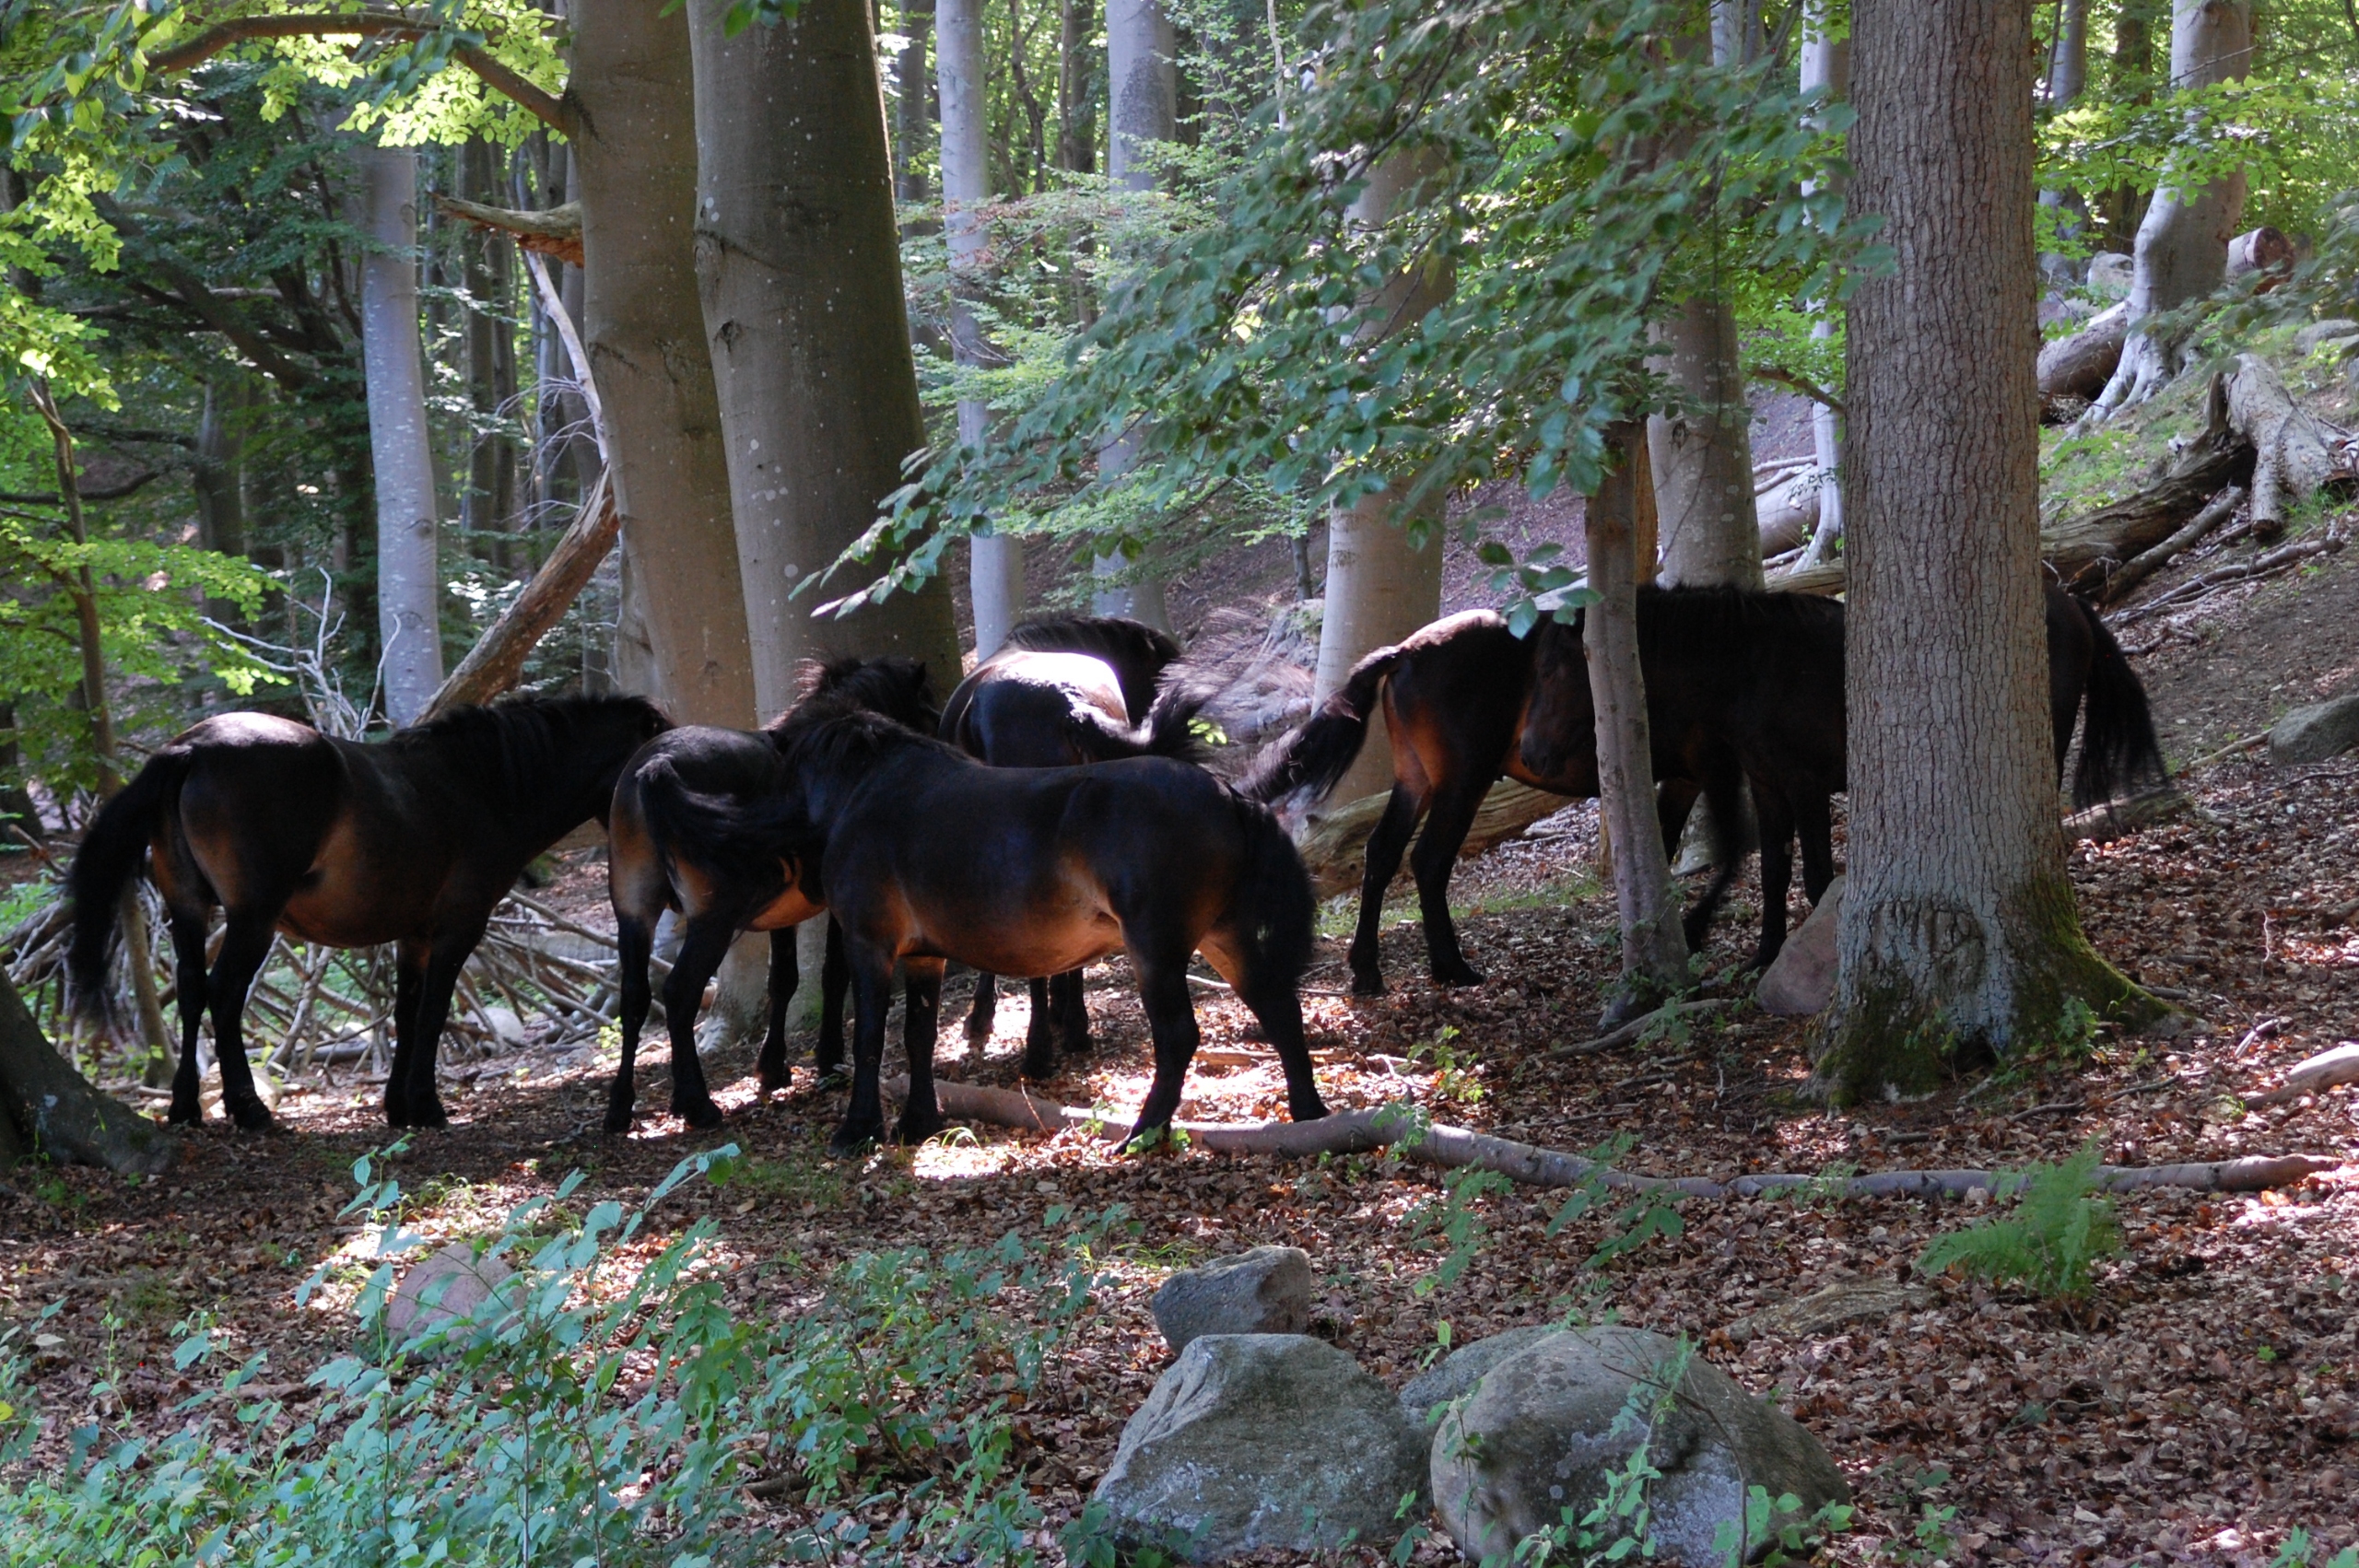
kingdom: Animalia
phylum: Chordata
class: Mammalia
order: Perissodactyla
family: Equidae
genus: Equus
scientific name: Equus caballus
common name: Hest
